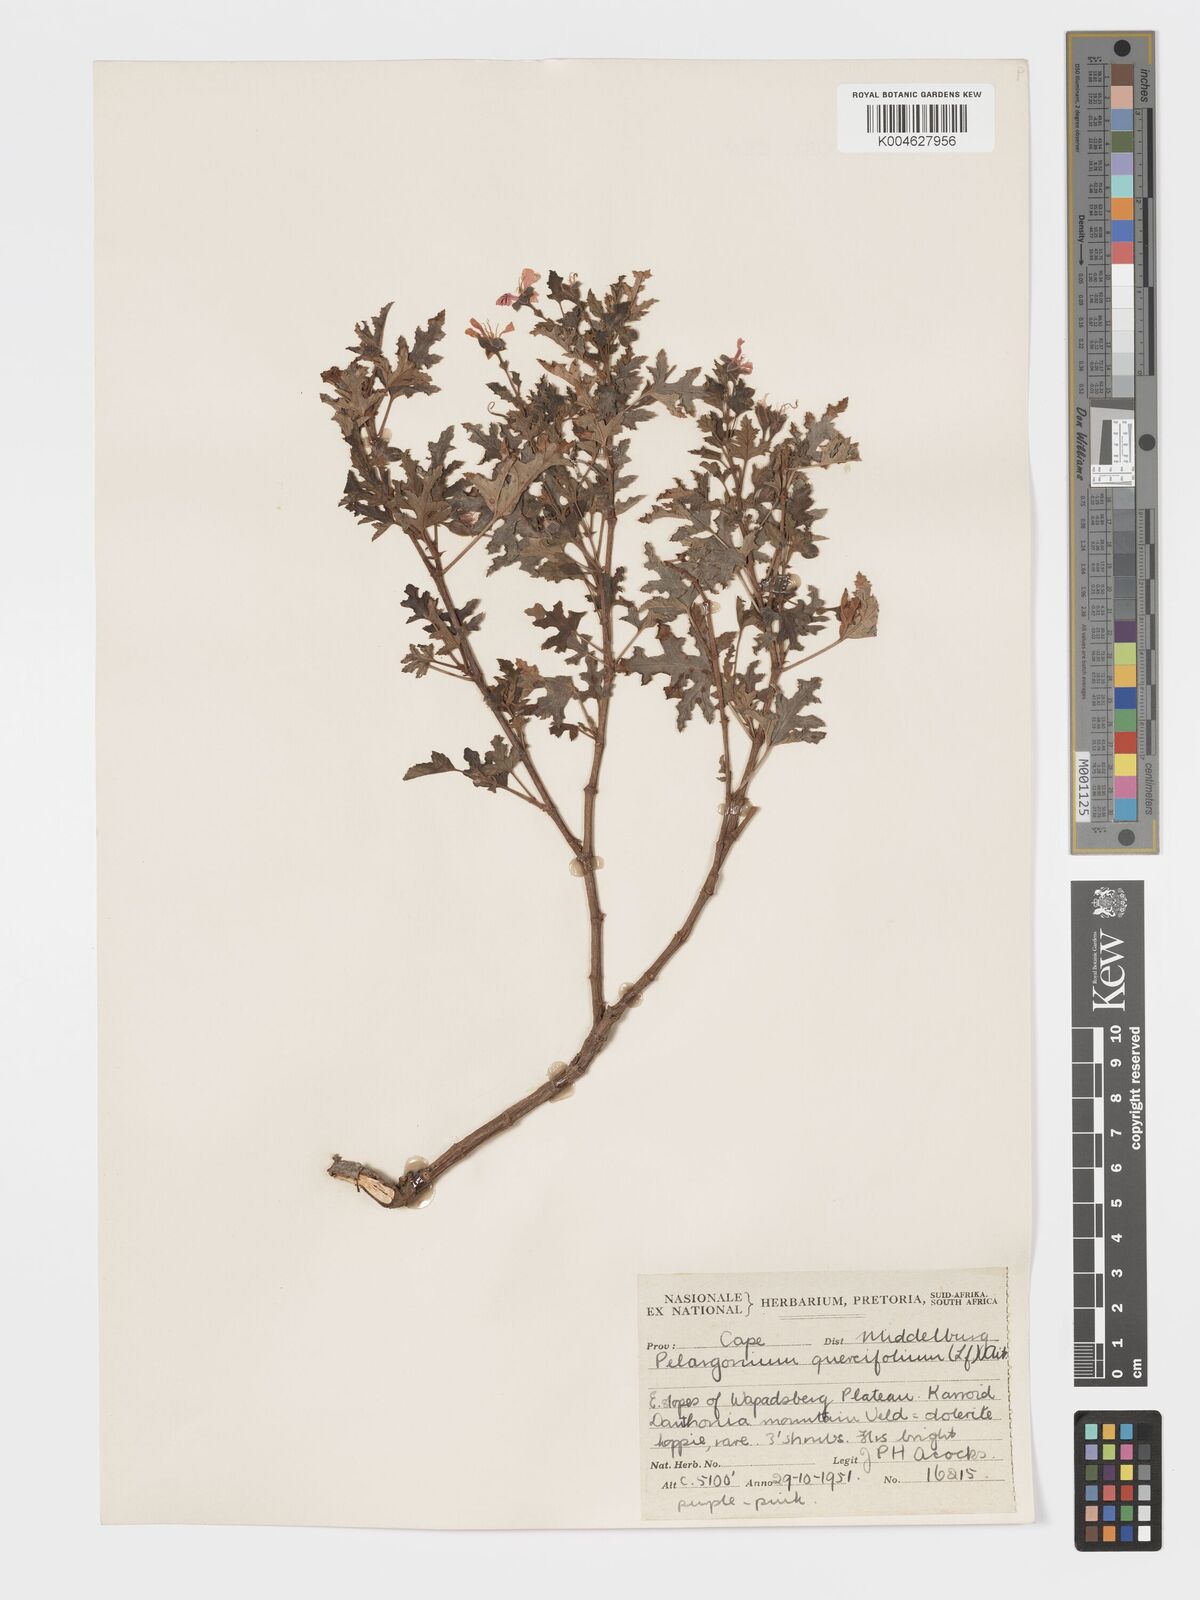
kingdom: Plantae
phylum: Tracheophyta
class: Magnoliopsida
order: Geraniales
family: Geraniaceae
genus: Pelargonium
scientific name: Pelargonium quercifolium
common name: Oakleaf geranium
